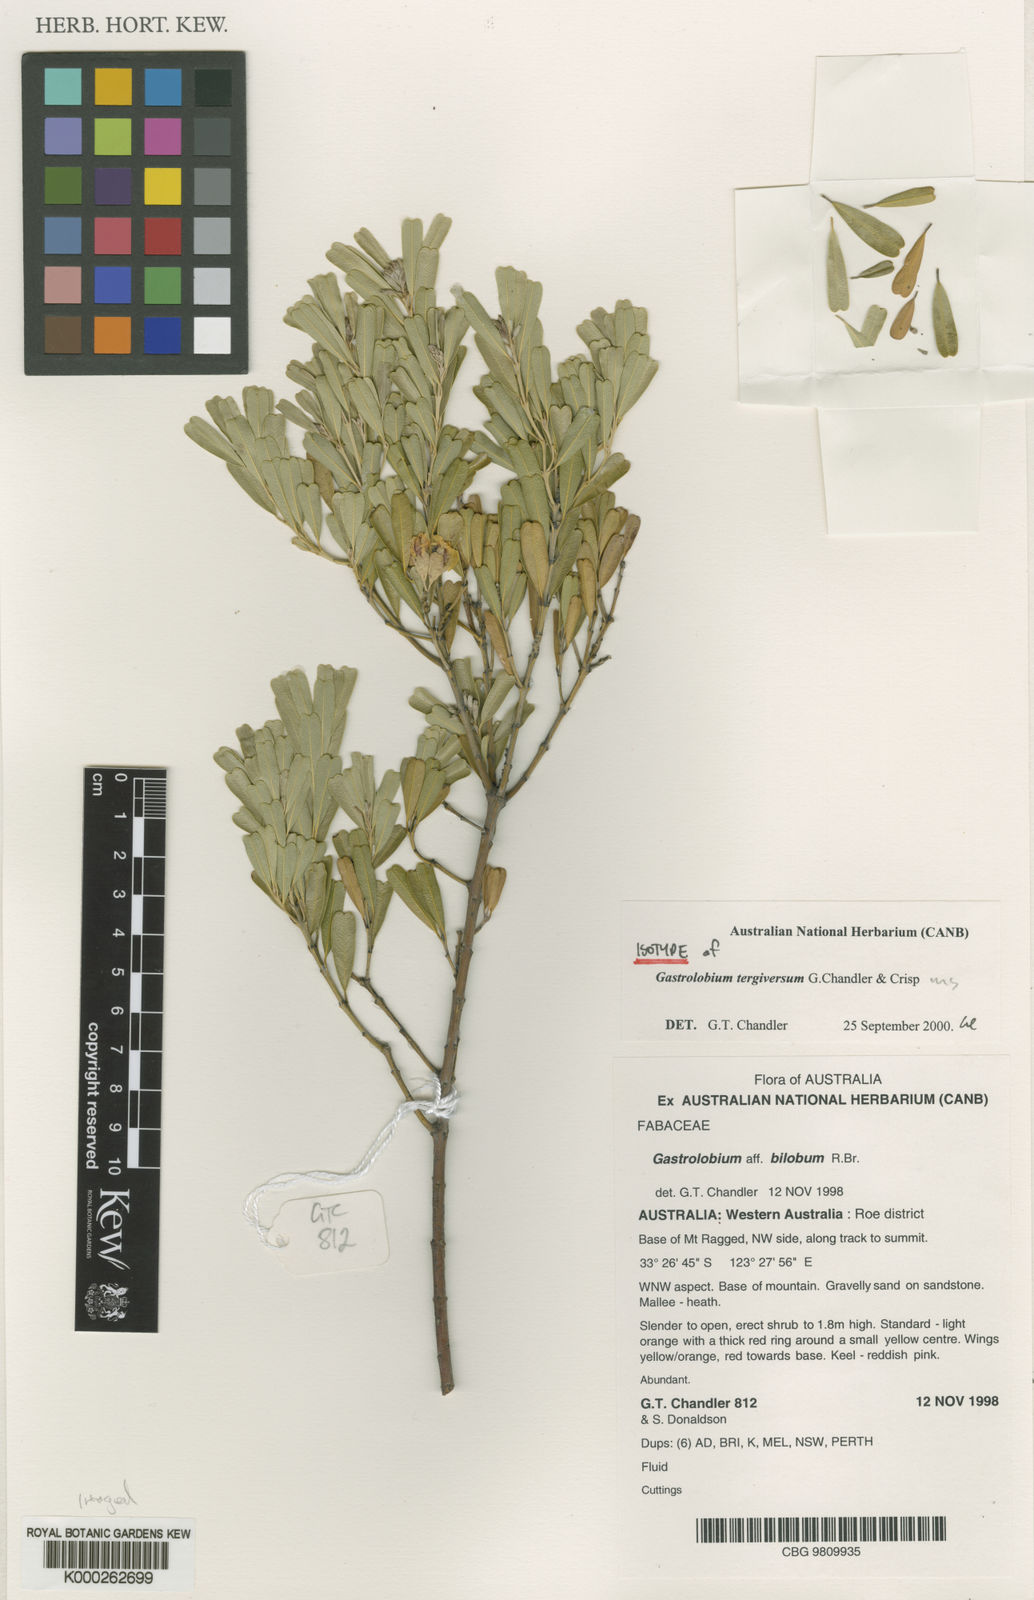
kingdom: Plantae
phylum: Tracheophyta
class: Magnoliopsida
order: Fabales
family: Fabaceae
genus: Gastrolobium
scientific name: Gastrolobium tergiversum
